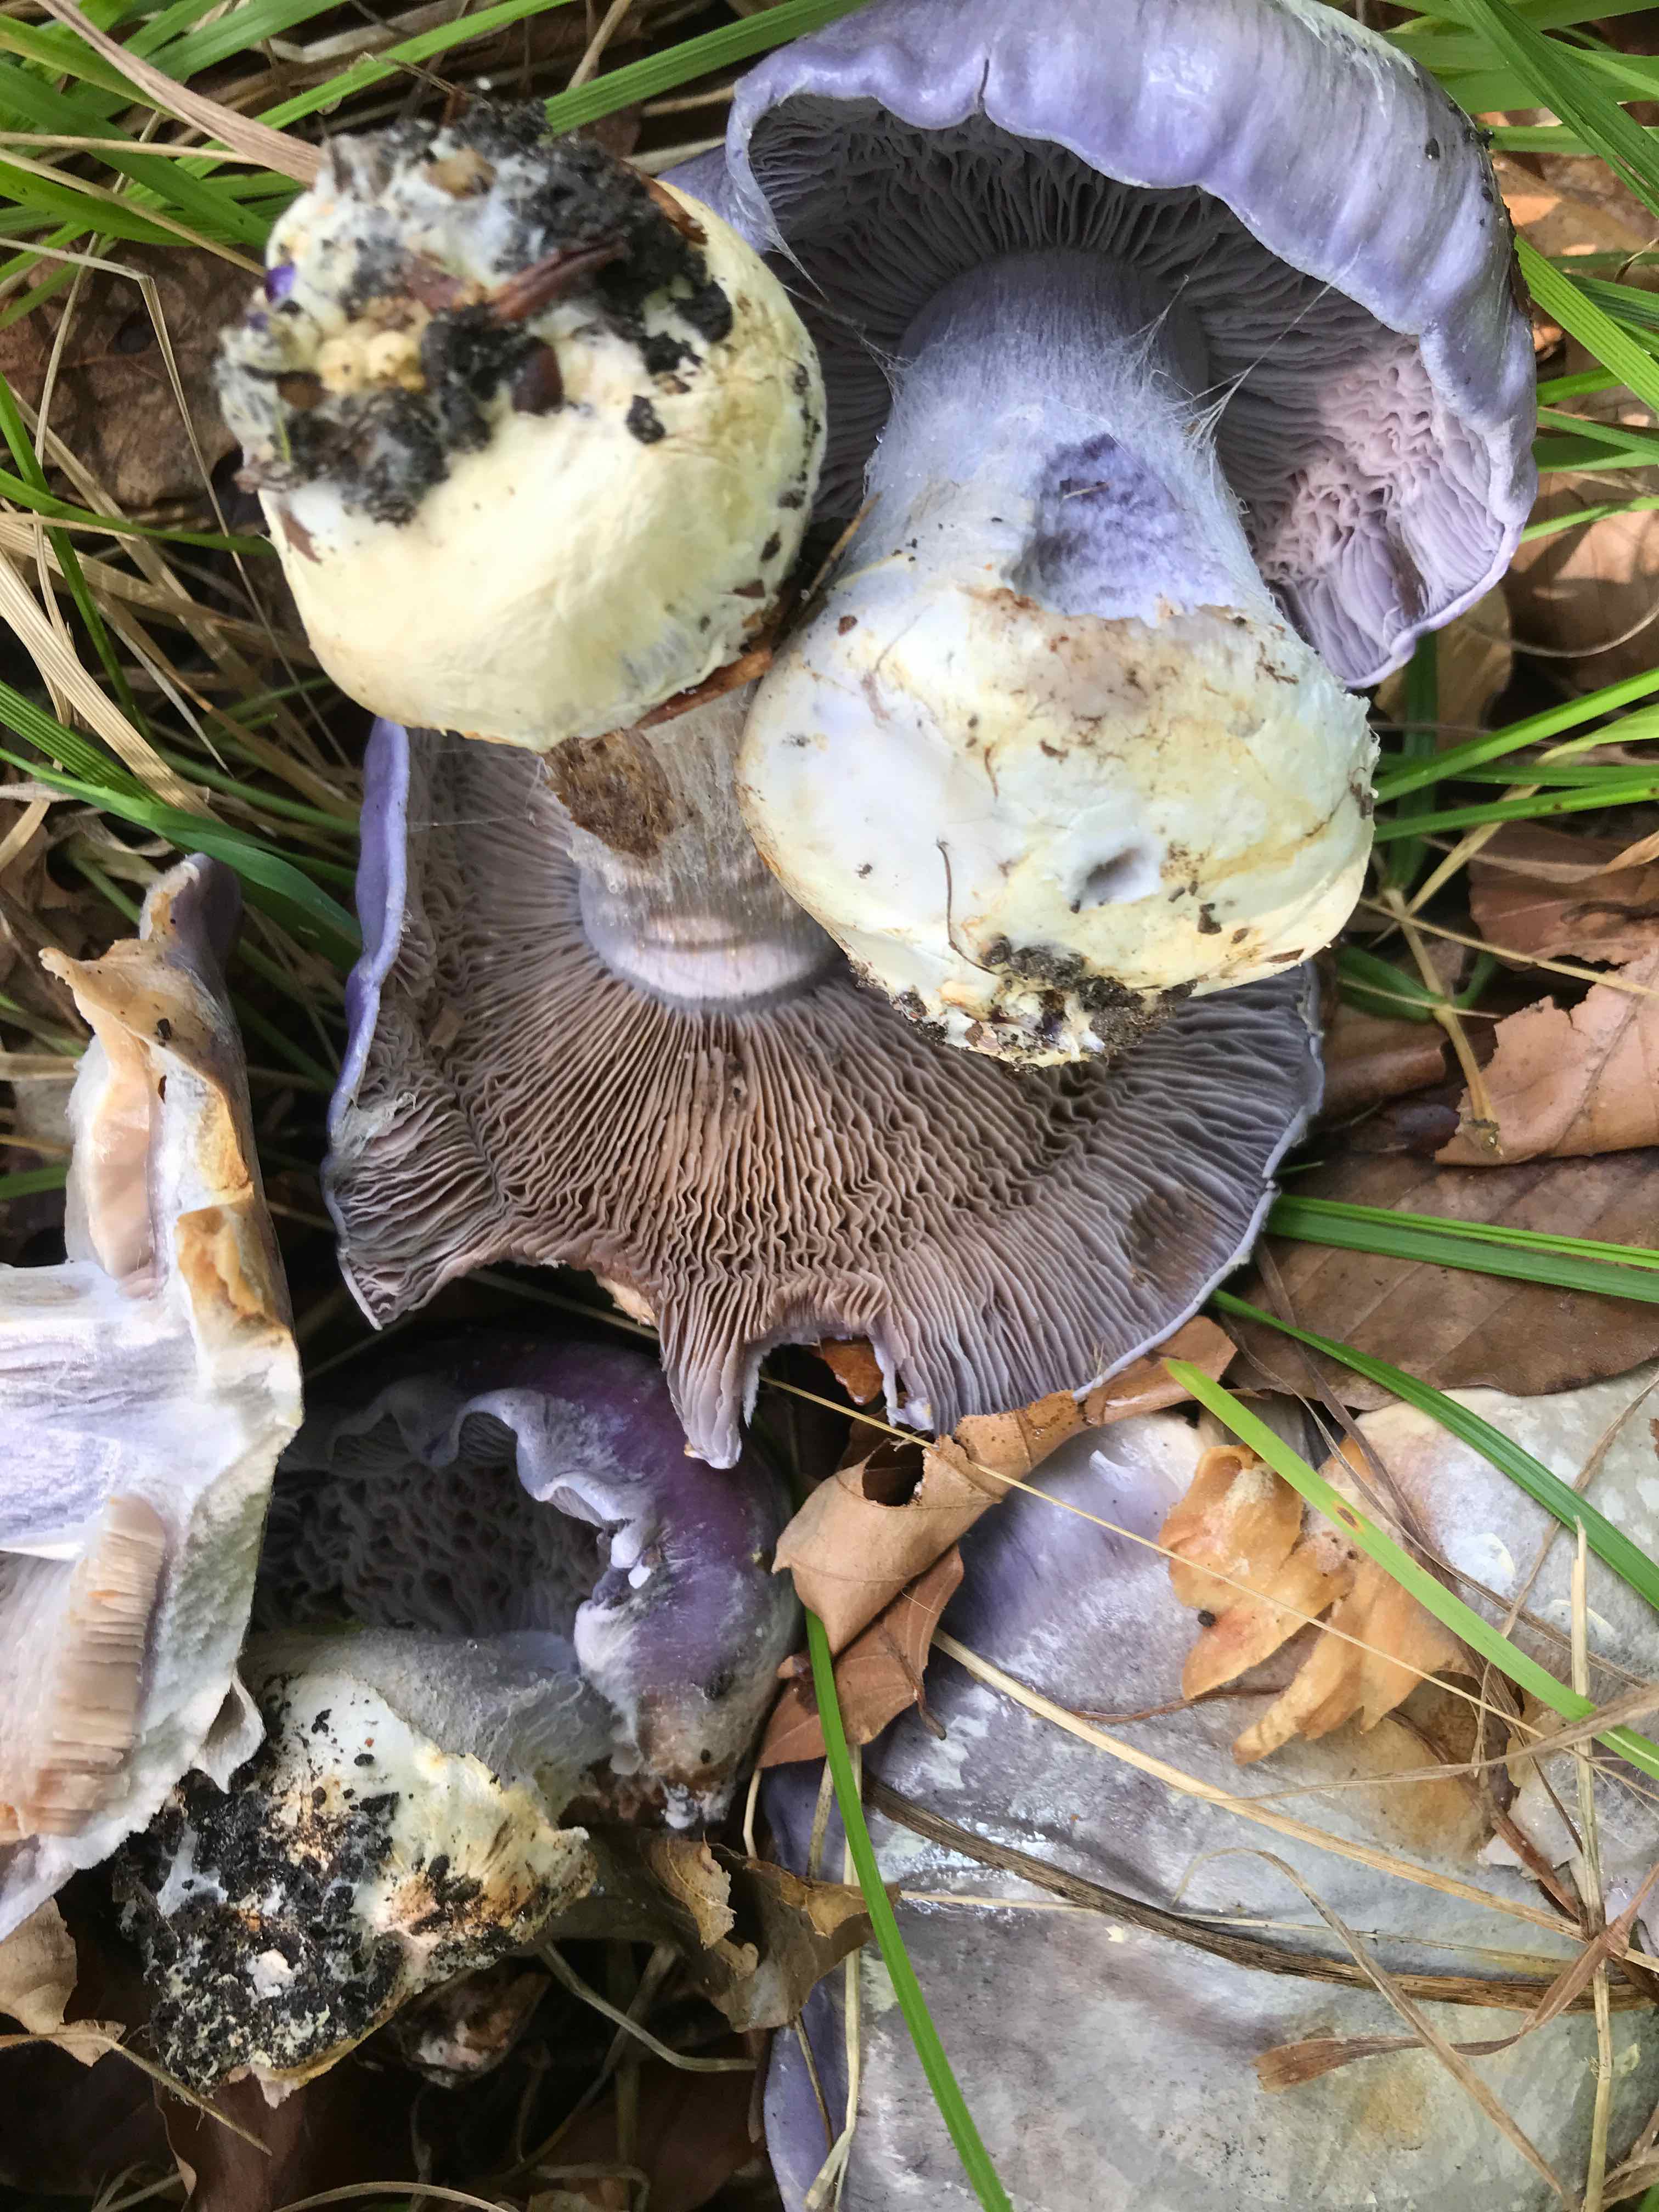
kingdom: Fungi
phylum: Basidiomycota
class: Agaricomycetes
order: Agaricales
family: Cortinariaceae
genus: Cortinarius
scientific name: Cortinarius caerulescens
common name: blåkødet slørhat
